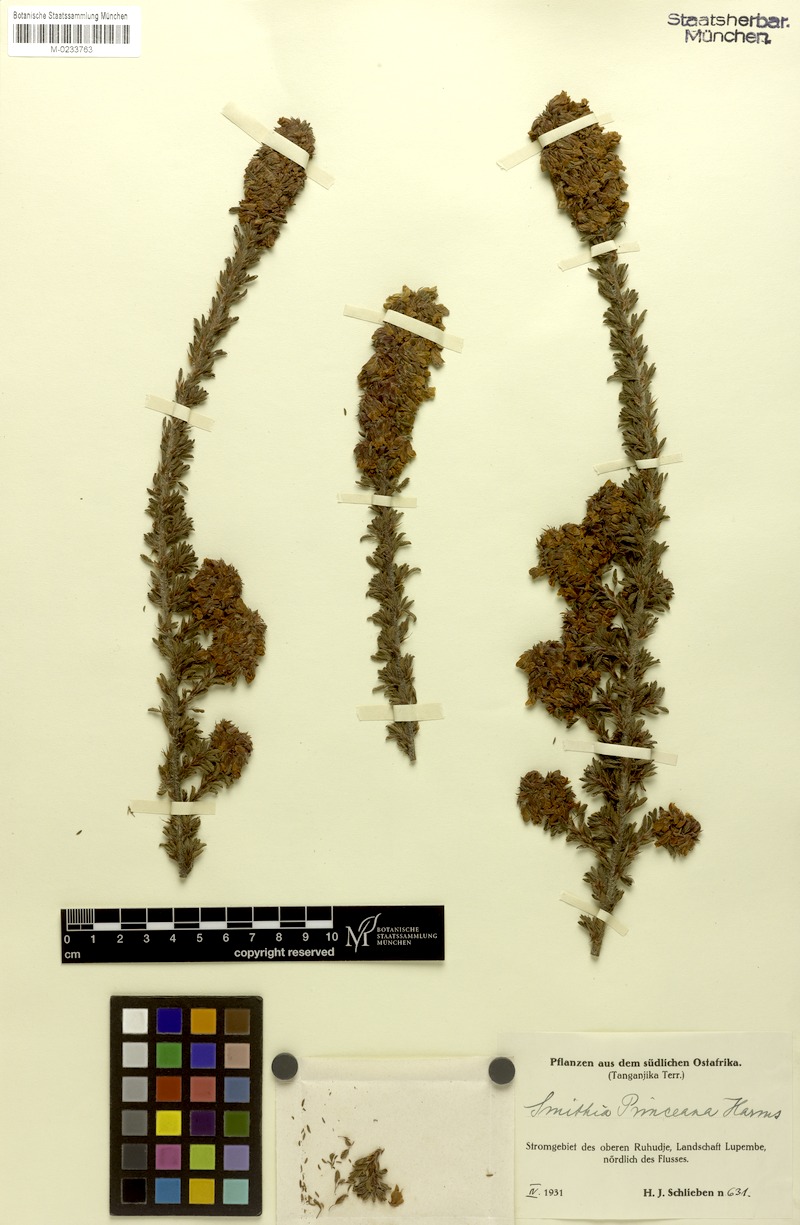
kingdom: Plantae
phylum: Tracheophyta
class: Magnoliopsida
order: Fabales
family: Fabaceae
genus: Kotschya
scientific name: Kotschya princeana
